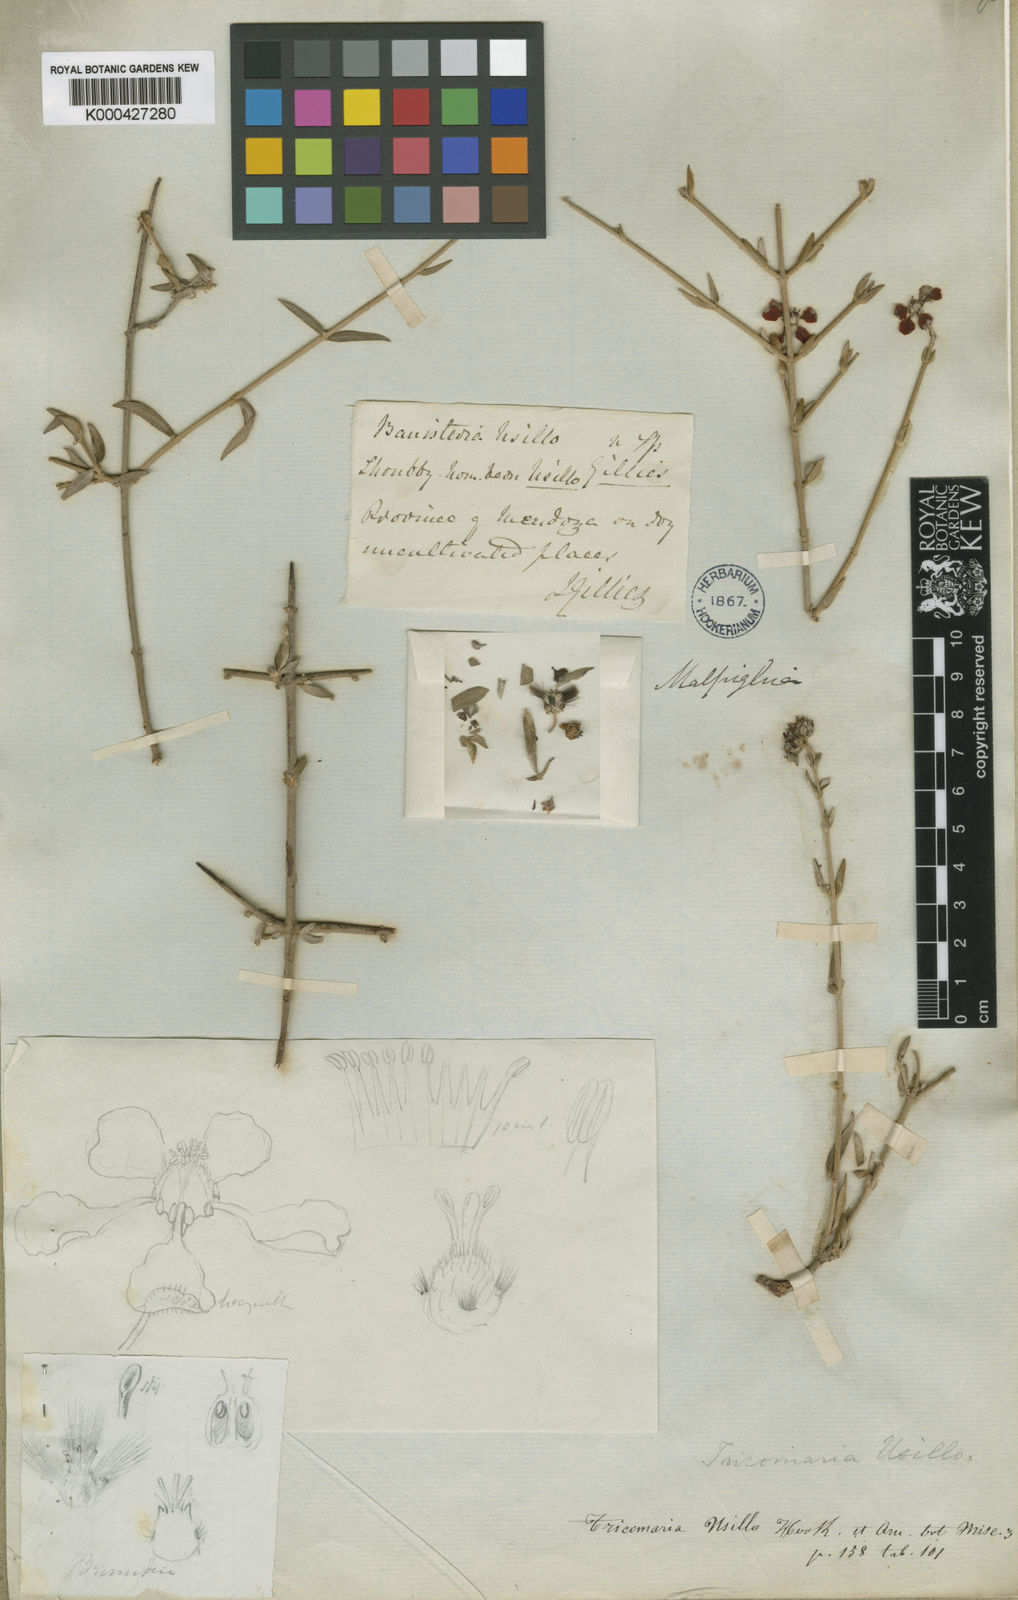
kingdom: Plantae
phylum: Tracheophyta
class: Magnoliopsida
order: Malpighiales
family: Malpighiaceae
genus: Tricomaria
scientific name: Tricomaria usillo
